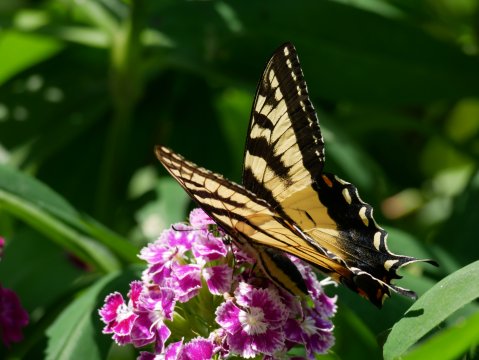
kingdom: Animalia
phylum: Arthropoda
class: Insecta
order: Lepidoptera
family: Papilionidae
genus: Pterourus
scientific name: Pterourus canadensis
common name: Canadian Tiger Swallowtail
